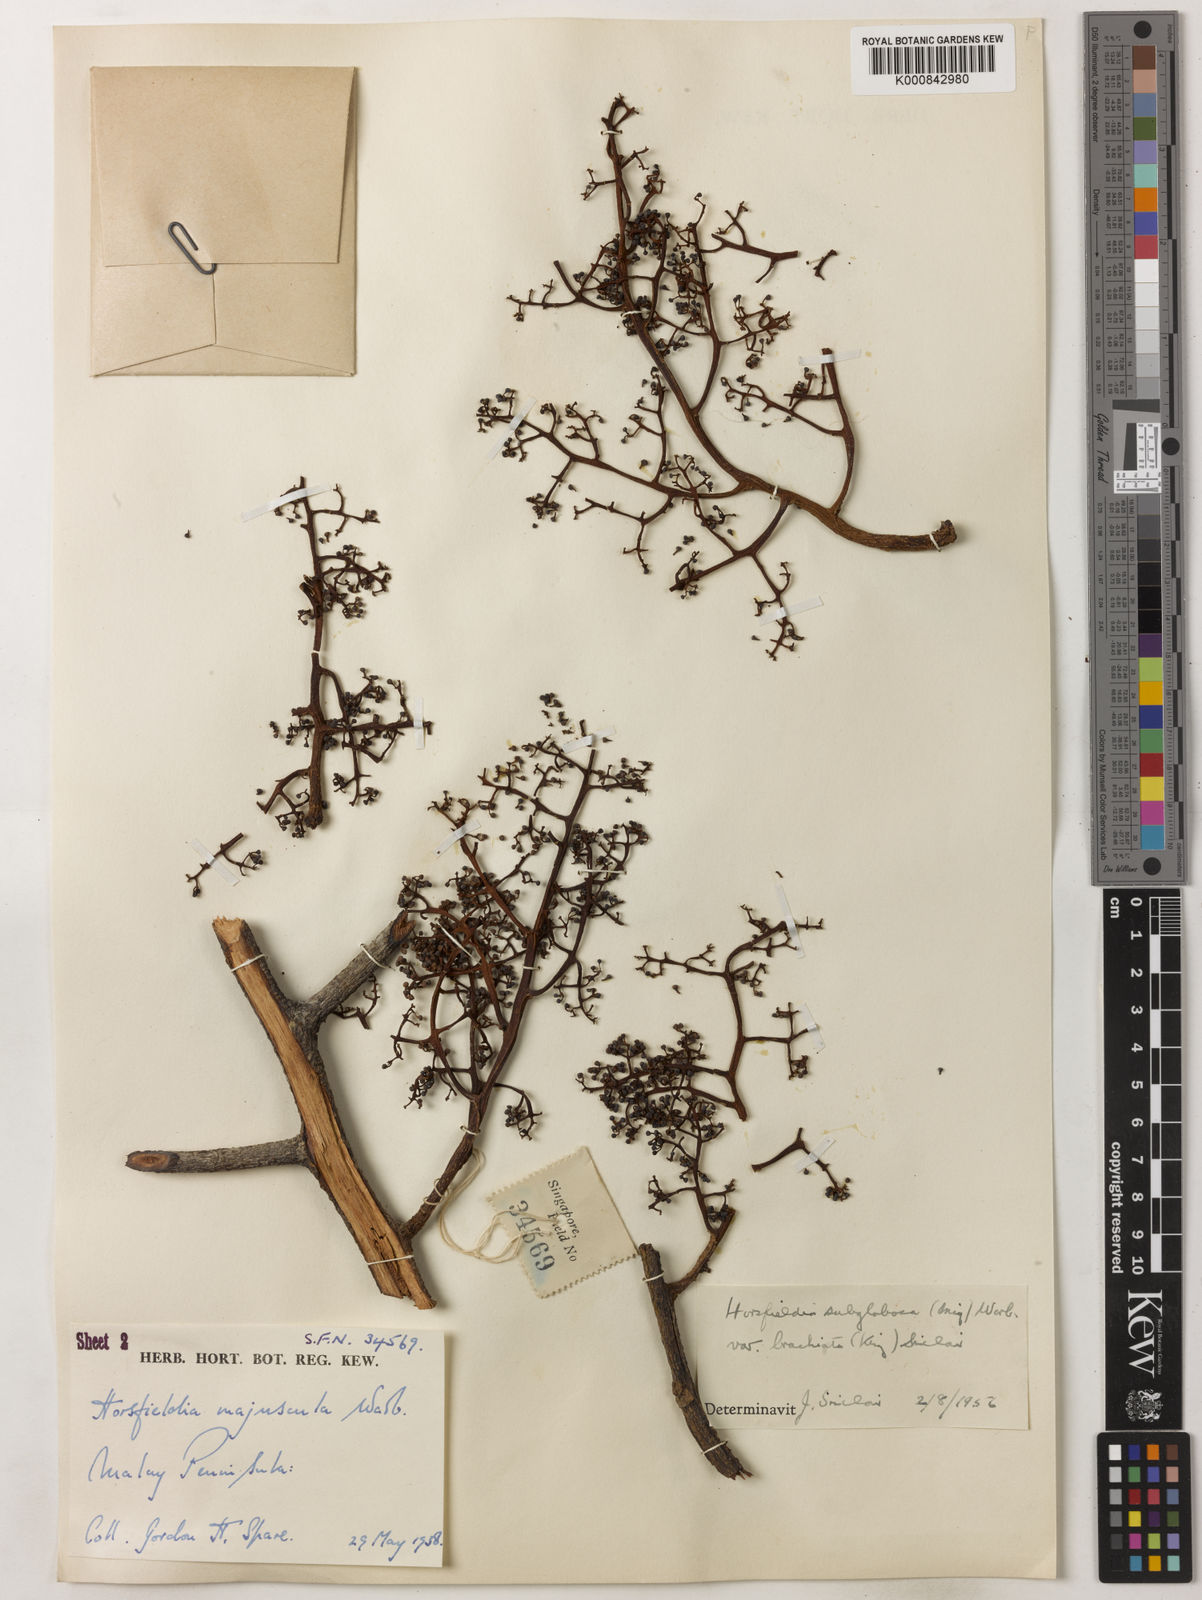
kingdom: Plantae
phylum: Tracheophyta
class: Magnoliopsida
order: Magnoliales
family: Myristicaceae
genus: Horsfieldia
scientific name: Horsfieldia brachiata
